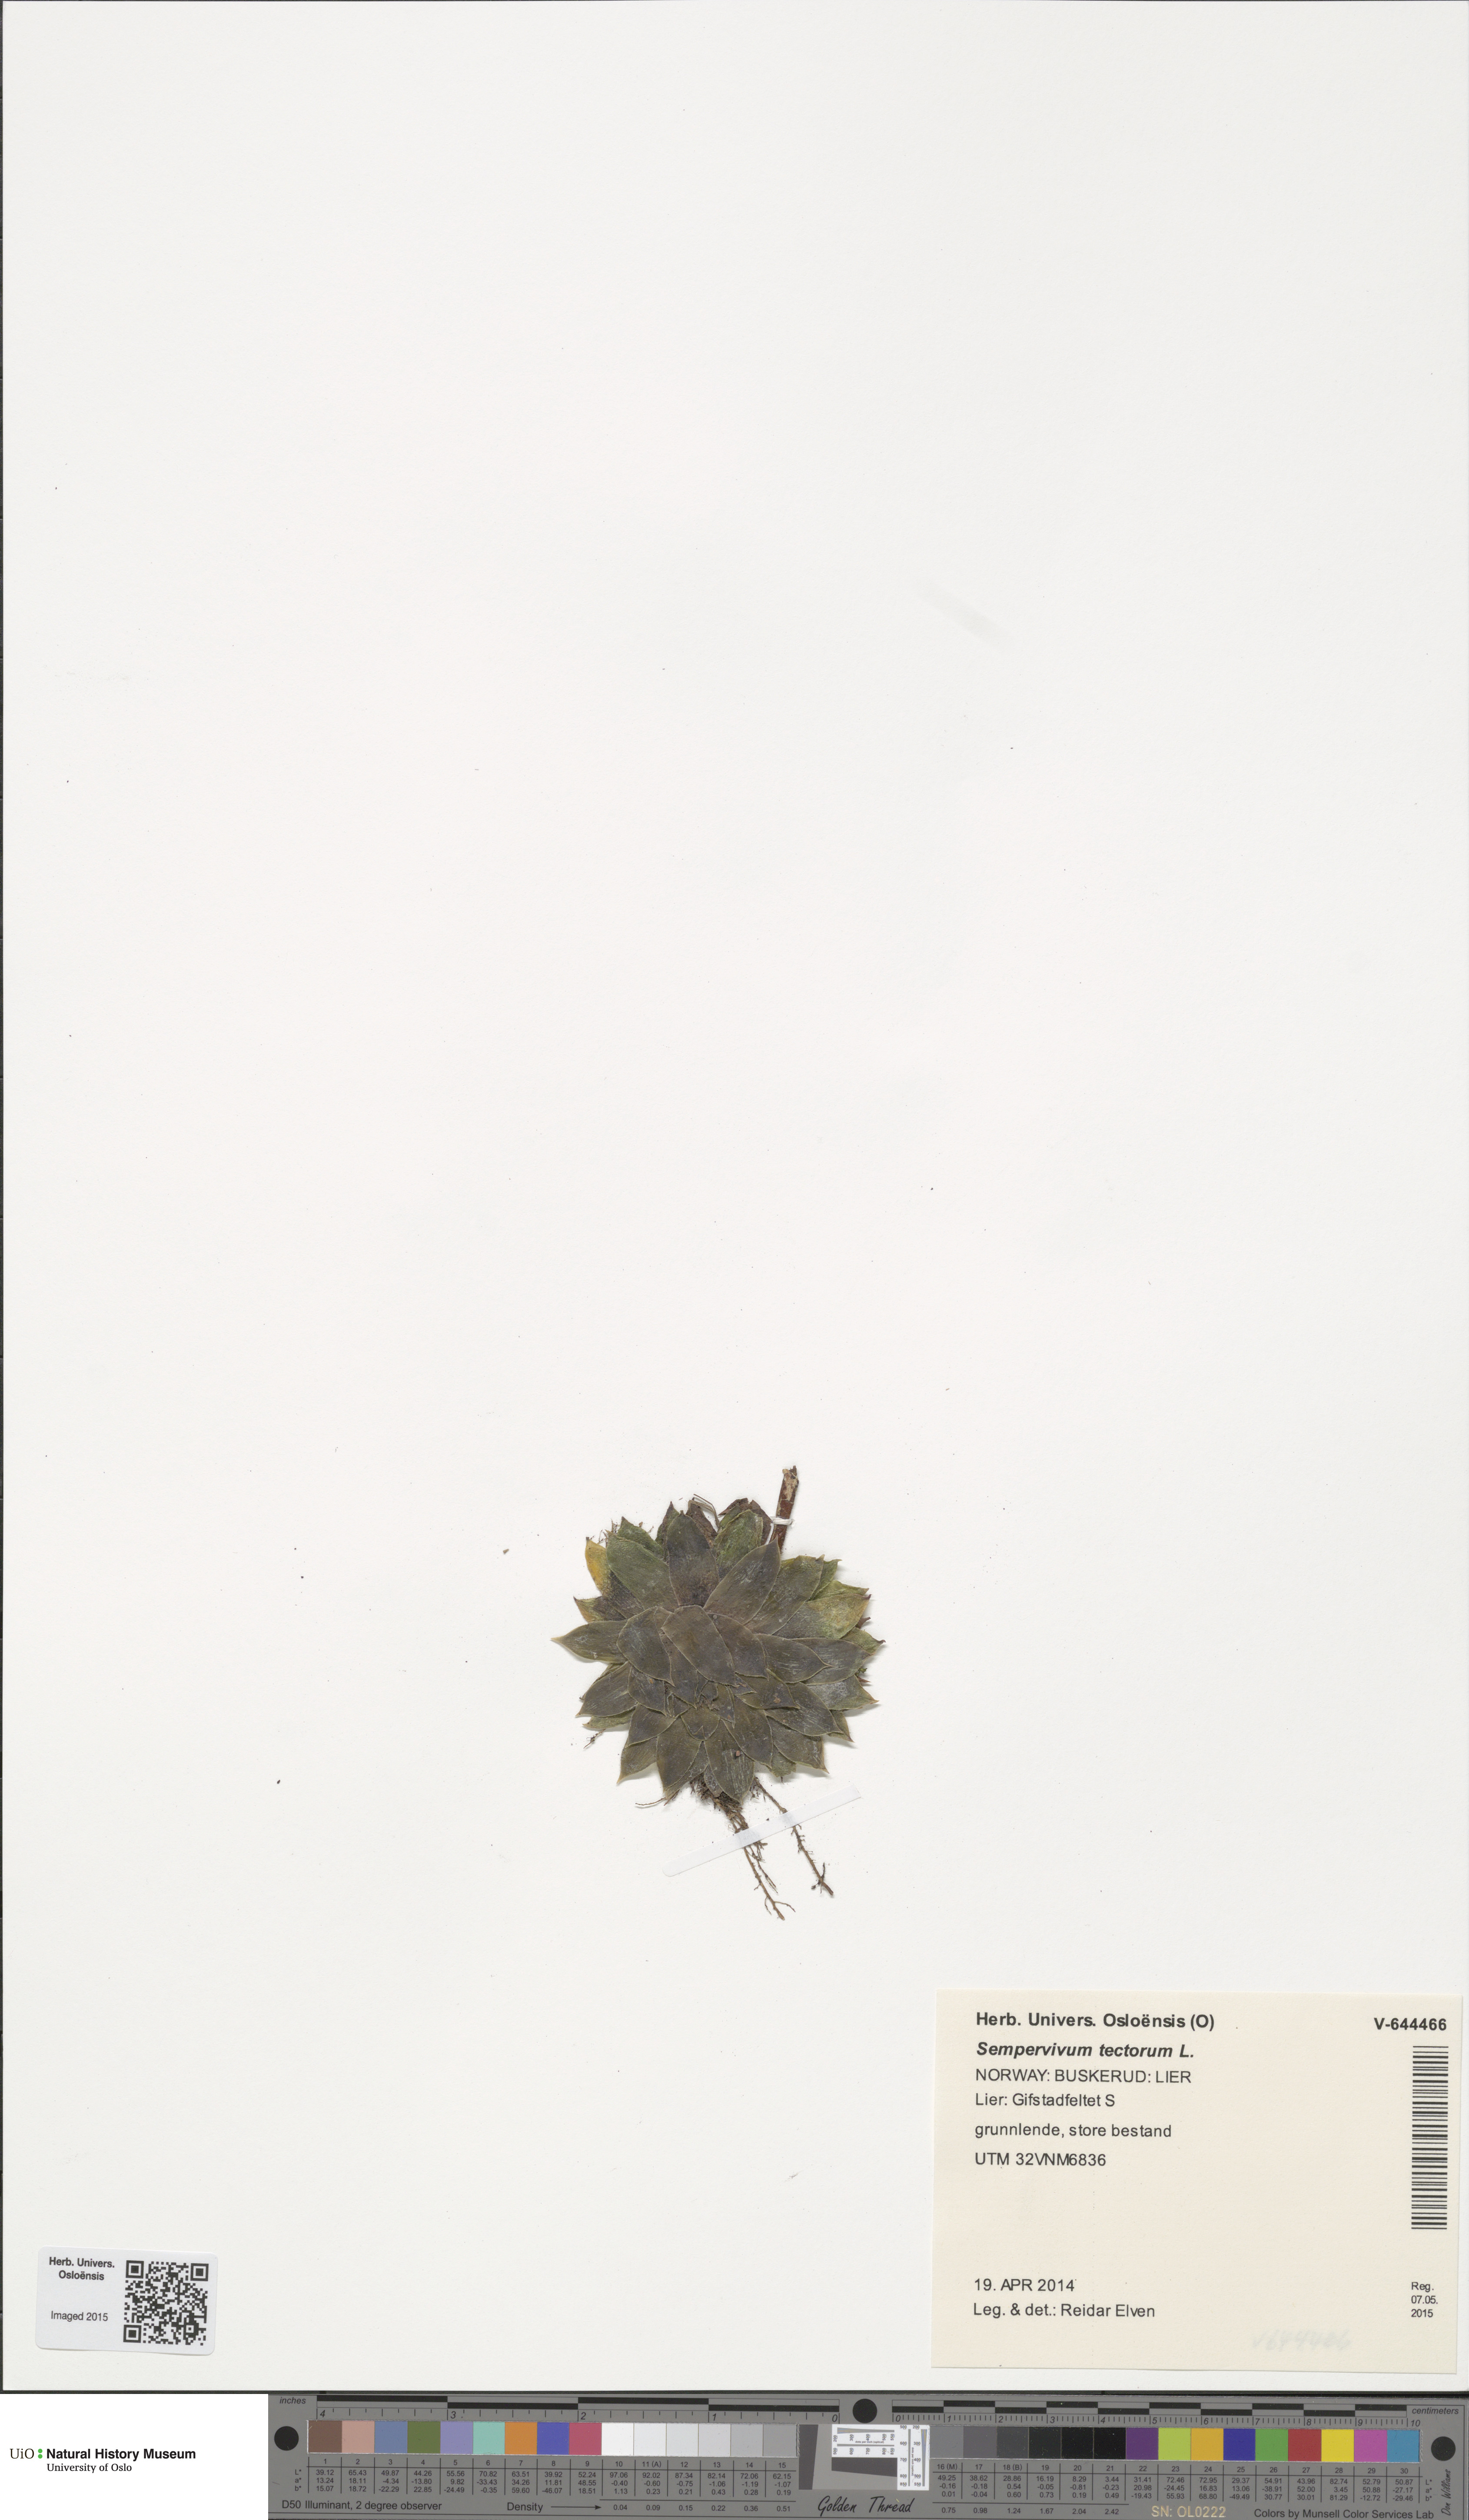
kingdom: Plantae
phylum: Tracheophyta
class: Magnoliopsida
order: Saxifragales
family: Crassulaceae
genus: Sempervivum
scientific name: Sempervivum tectorum
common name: House-leek
